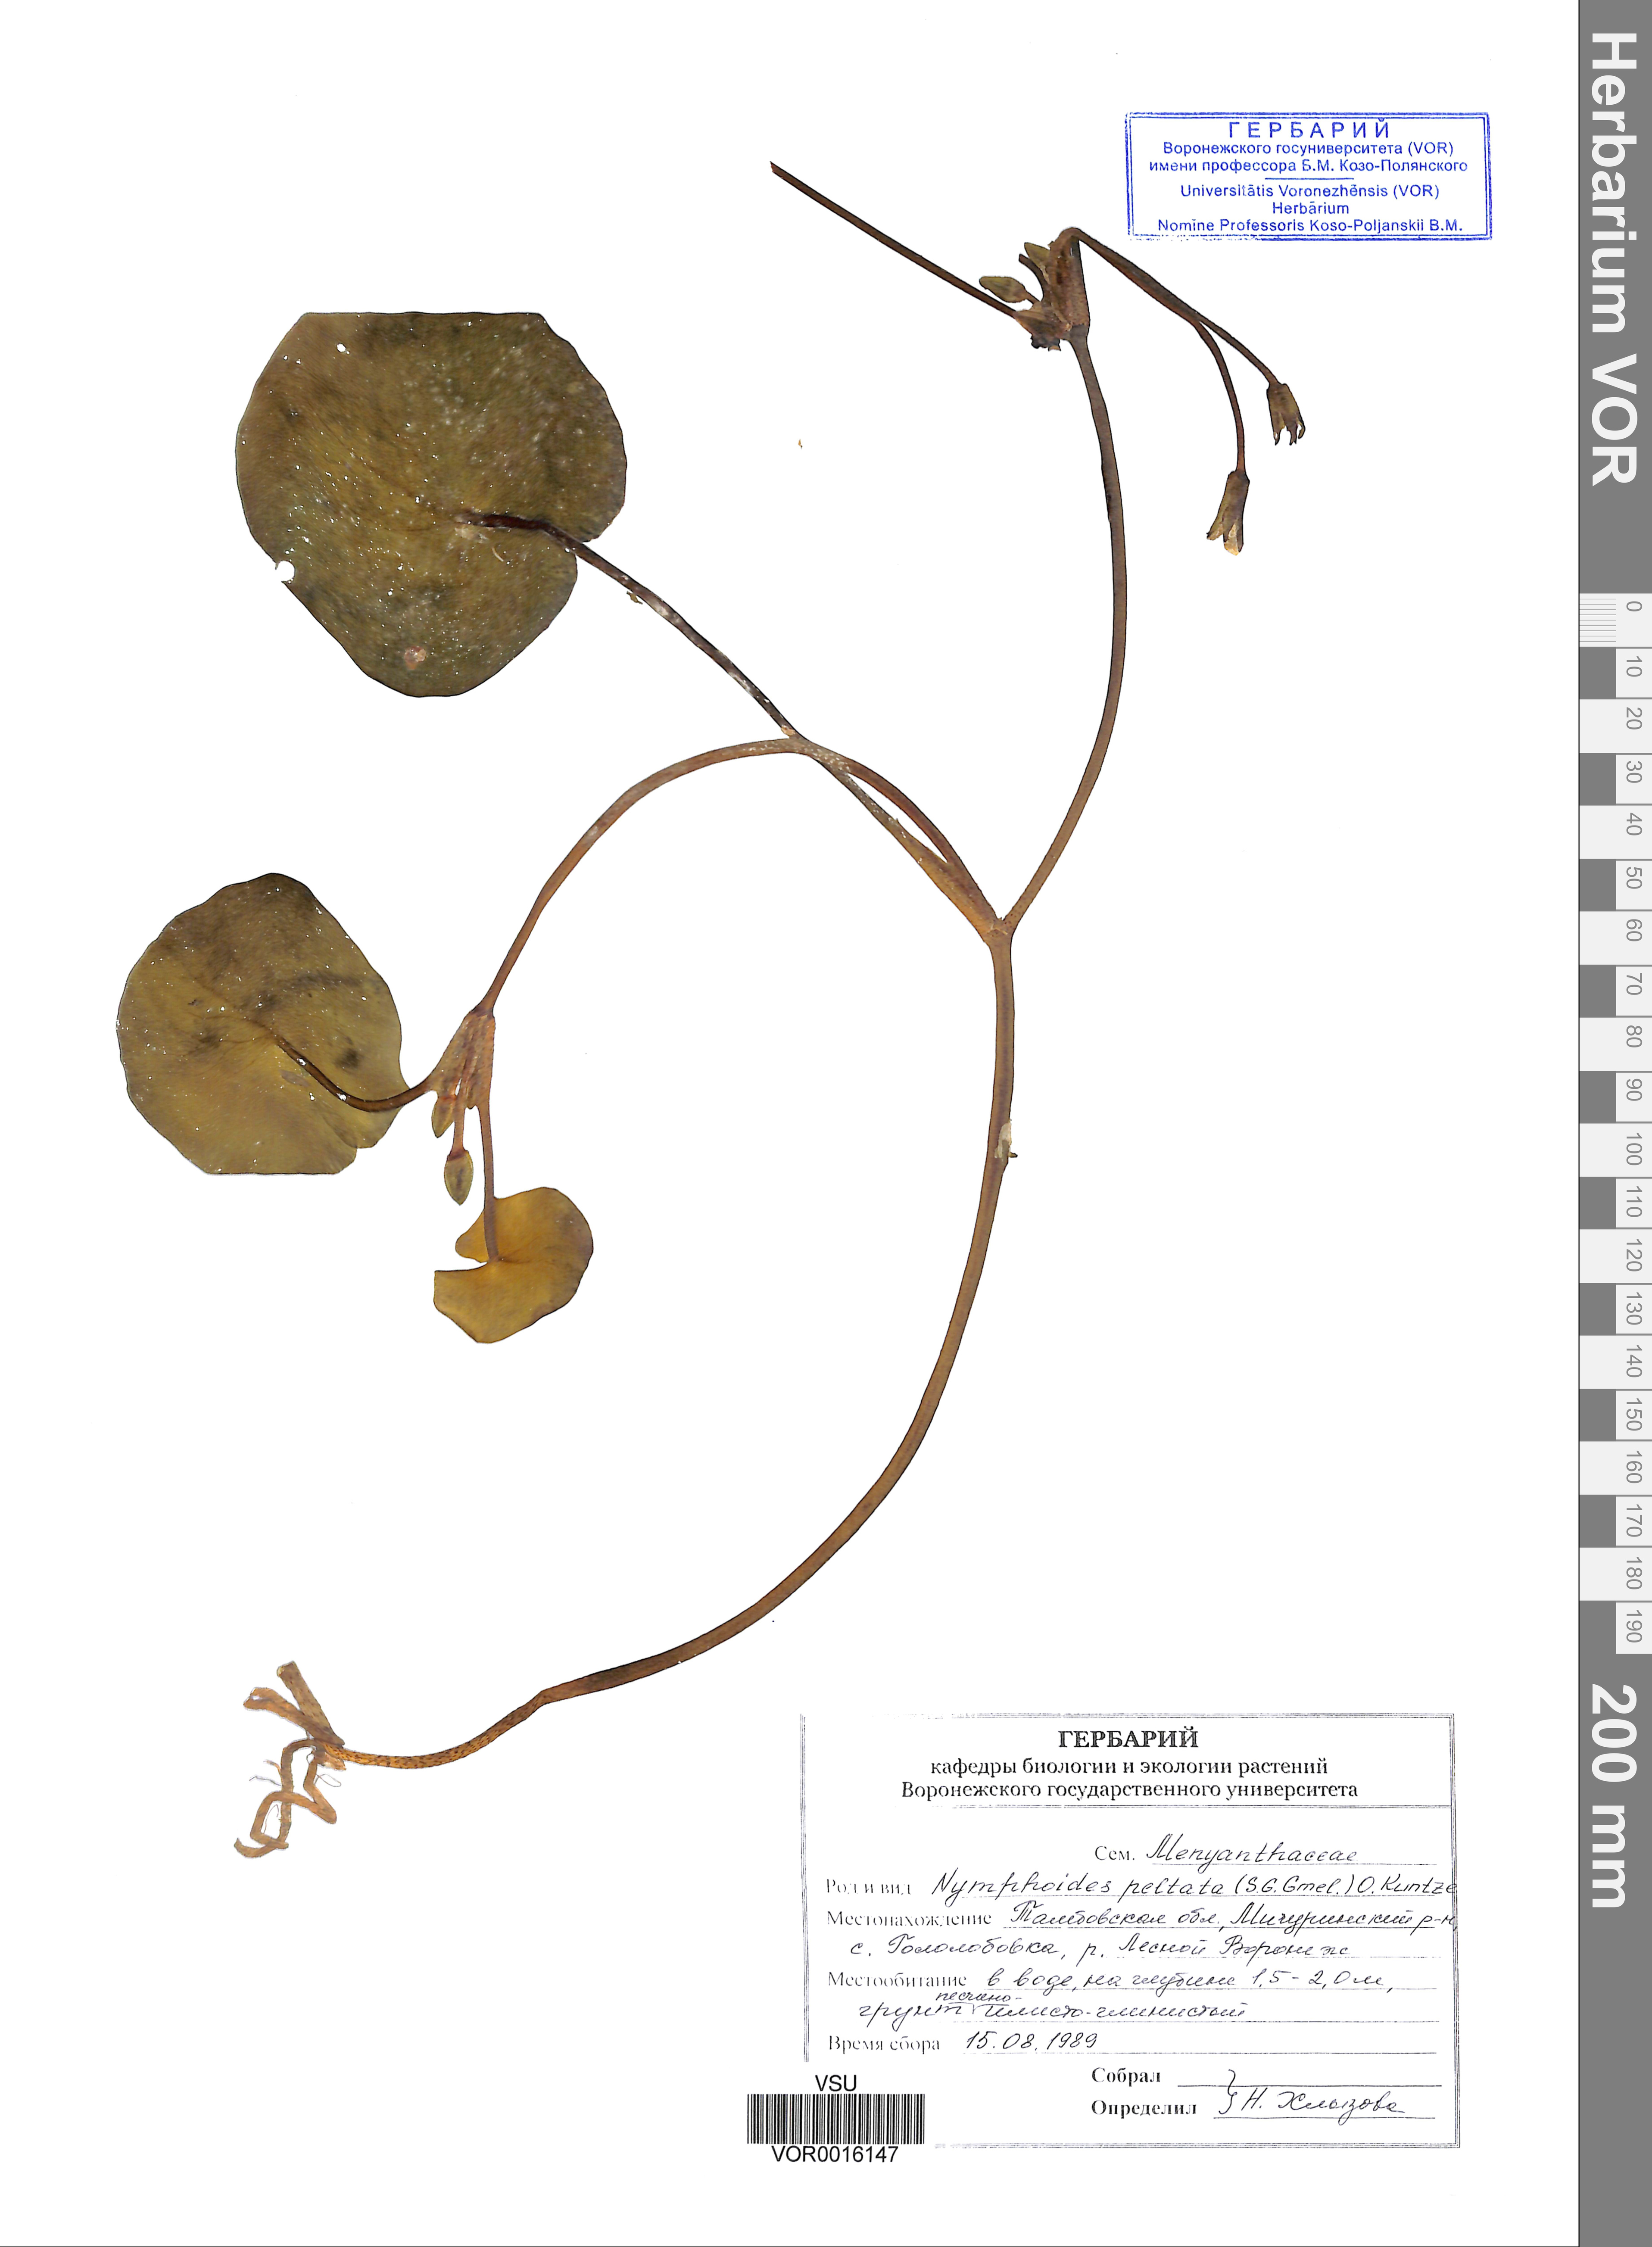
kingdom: Plantae
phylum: Tracheophyta
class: Magnoliopsida
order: Asterales
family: Menyanthaceae
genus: Nymphoides
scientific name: Nymphoides peltata
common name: Fringed water-lily
